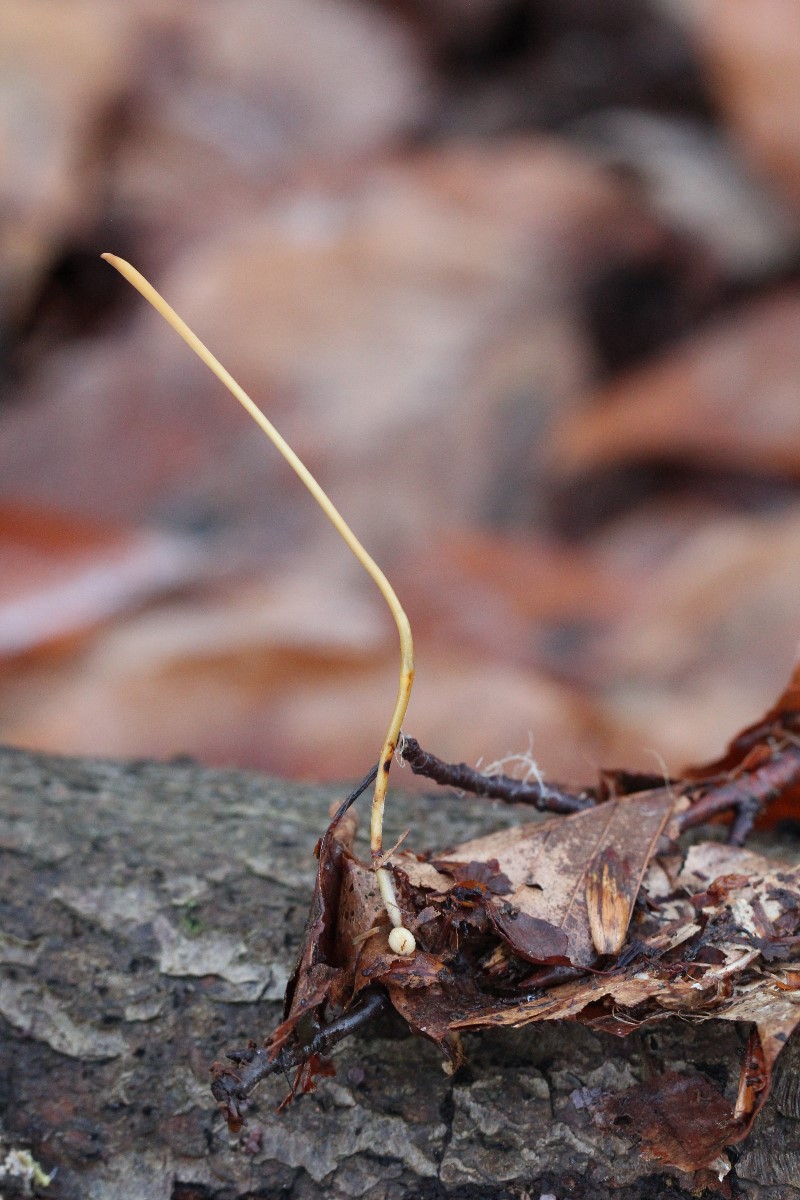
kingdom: Fungi
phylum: Basidiomycota
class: Agaricomycetes
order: Agaricales
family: Typhulaceae
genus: Typhula
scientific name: Typhula fistulosa
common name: pibet rørkølle
